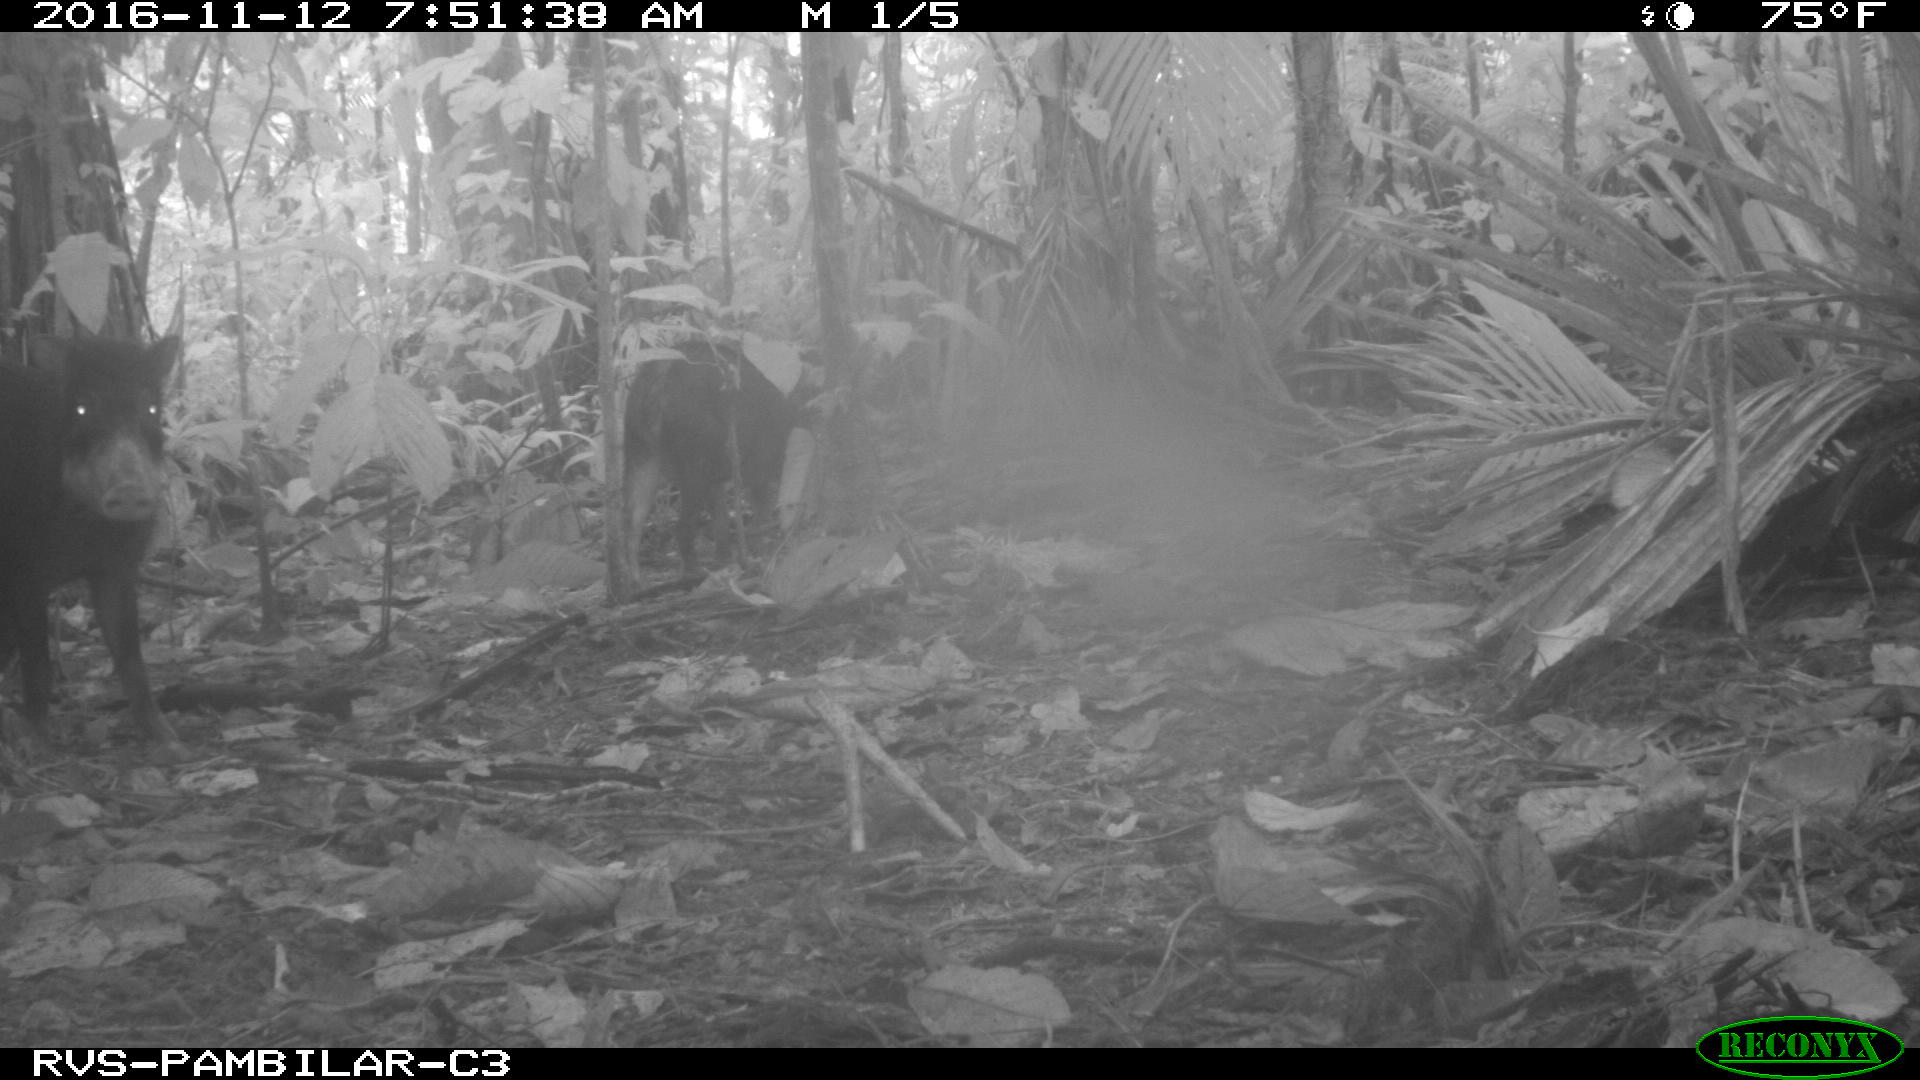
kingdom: Animalia
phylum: Chordata
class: Mammalia
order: Artiodactyla
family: Tayassuidae
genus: Tayassu
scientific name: Tayassu pecari
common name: White-lipped peccary
